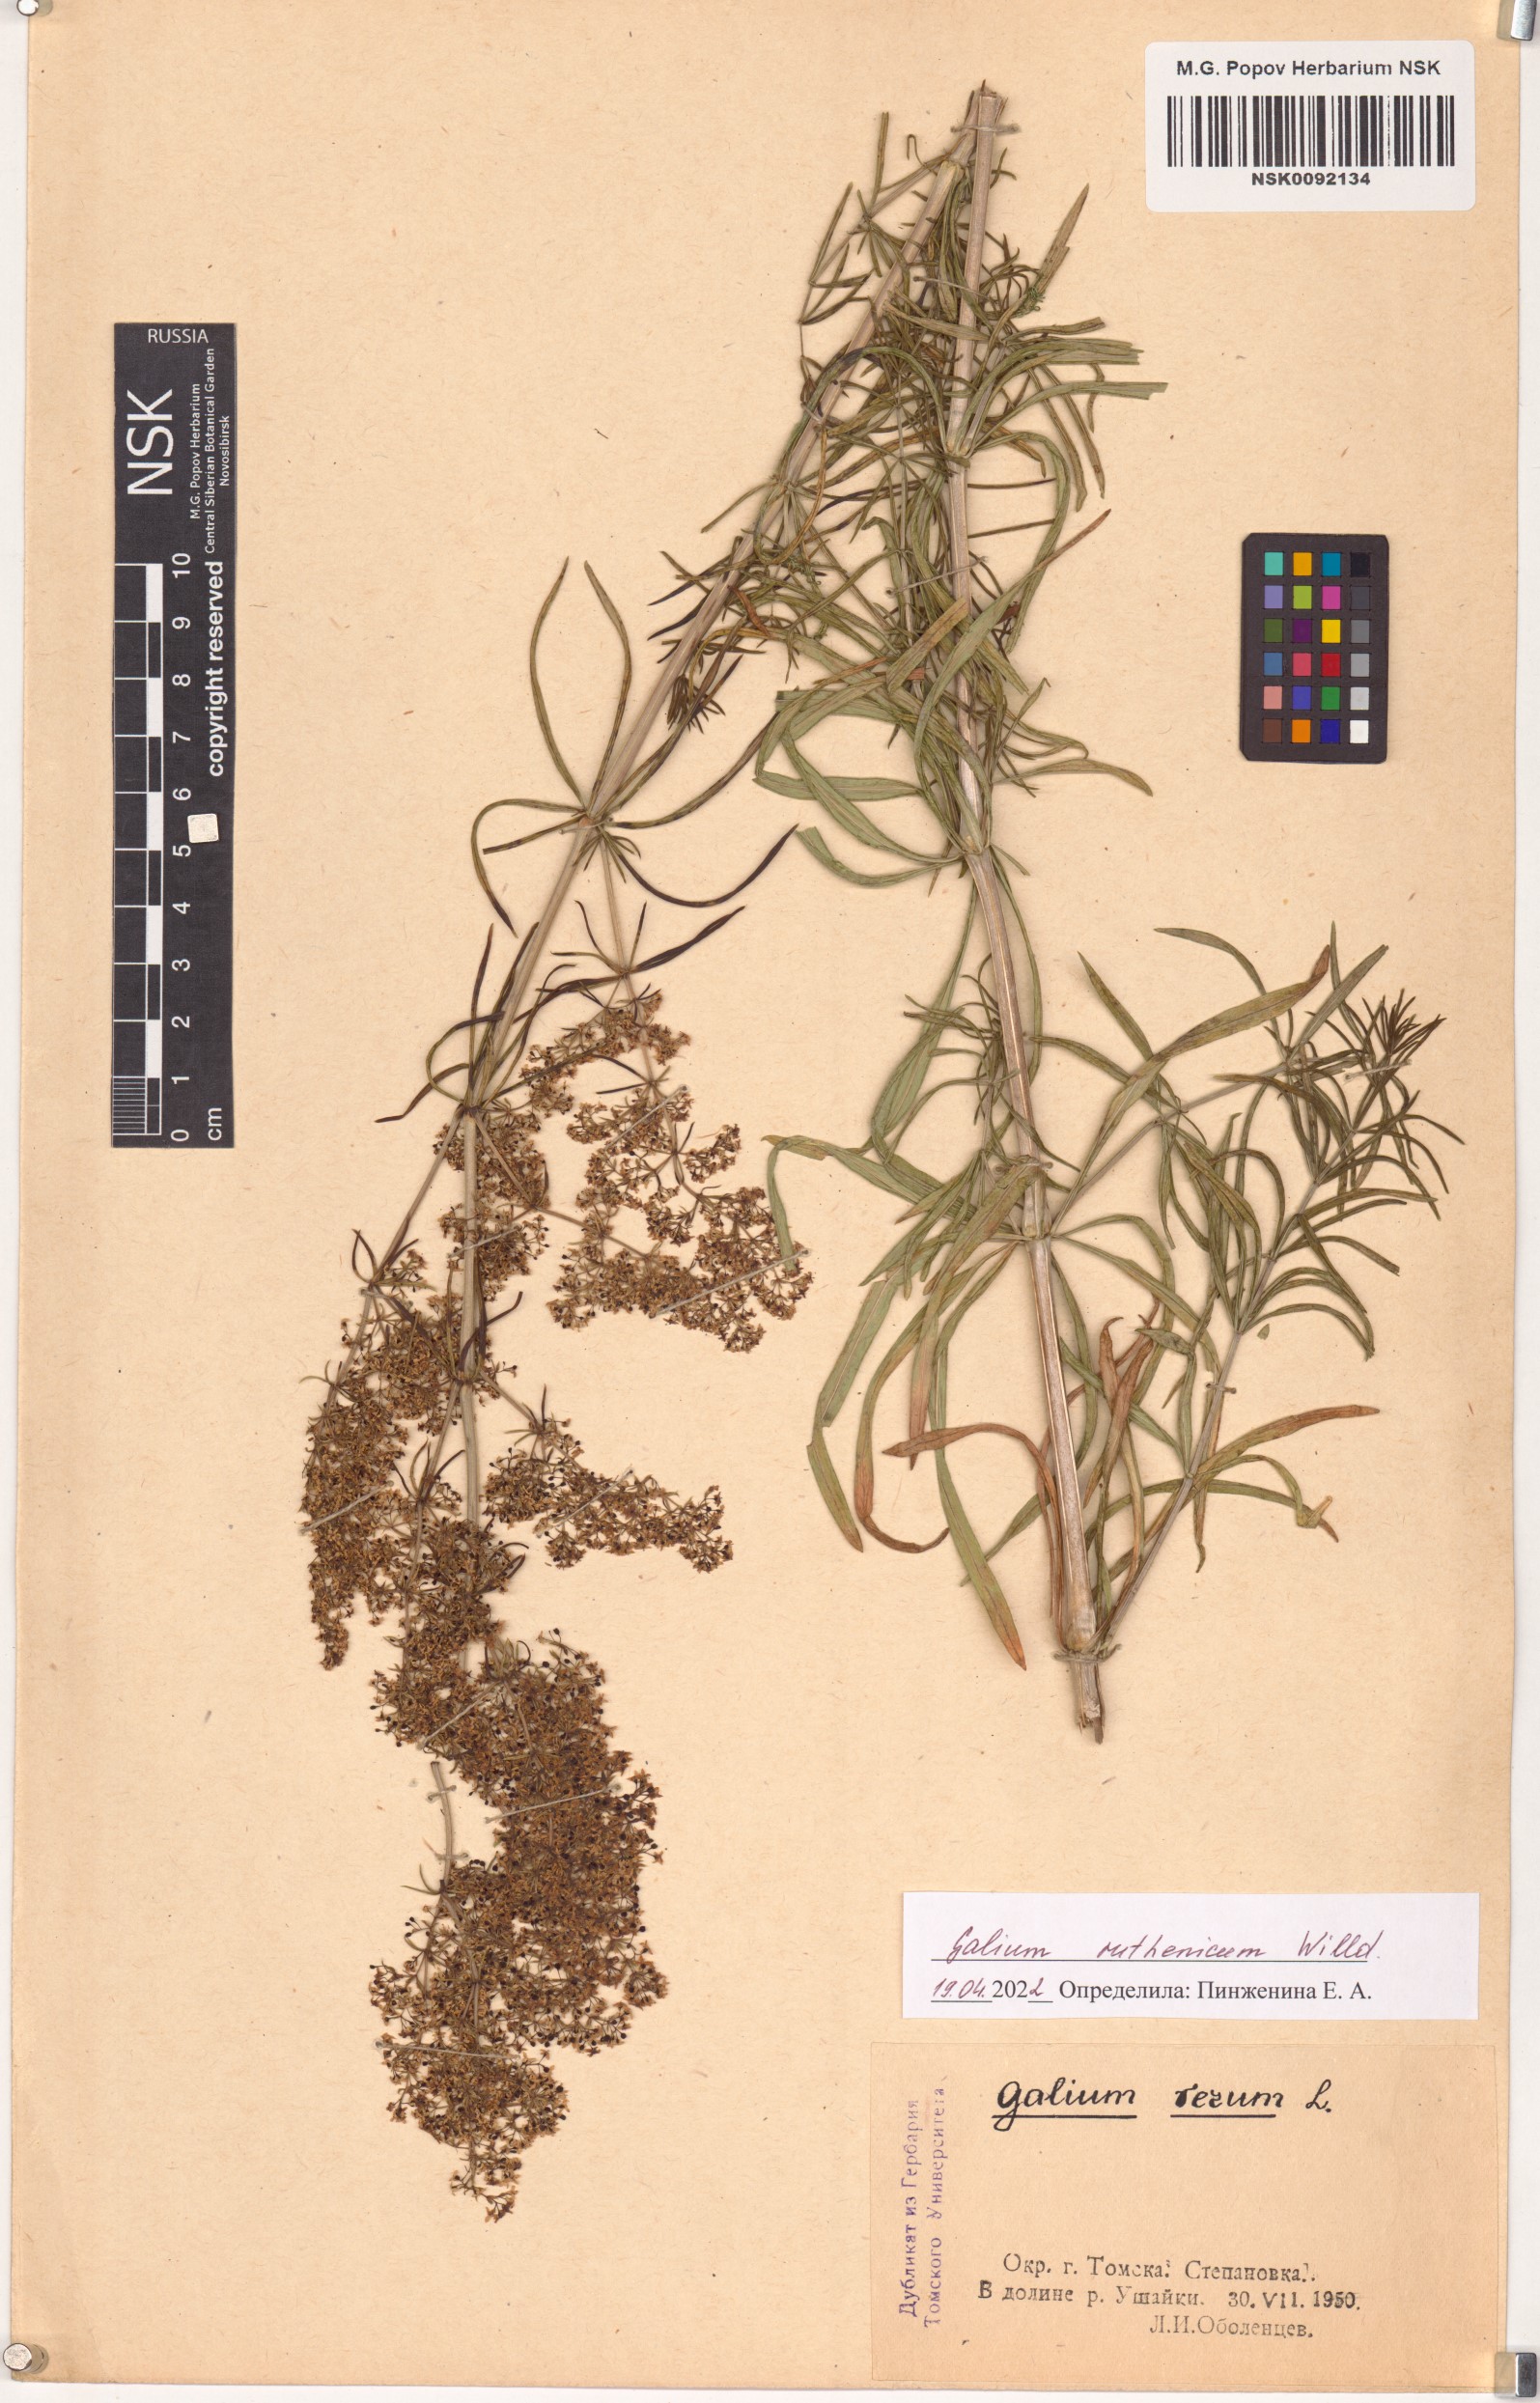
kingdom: Plantae
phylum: Tracheophyta
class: Magnoliopsida
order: Gentianales
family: Rubiaceae
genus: Galium
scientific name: Galium verum
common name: Lady's bedstraw
